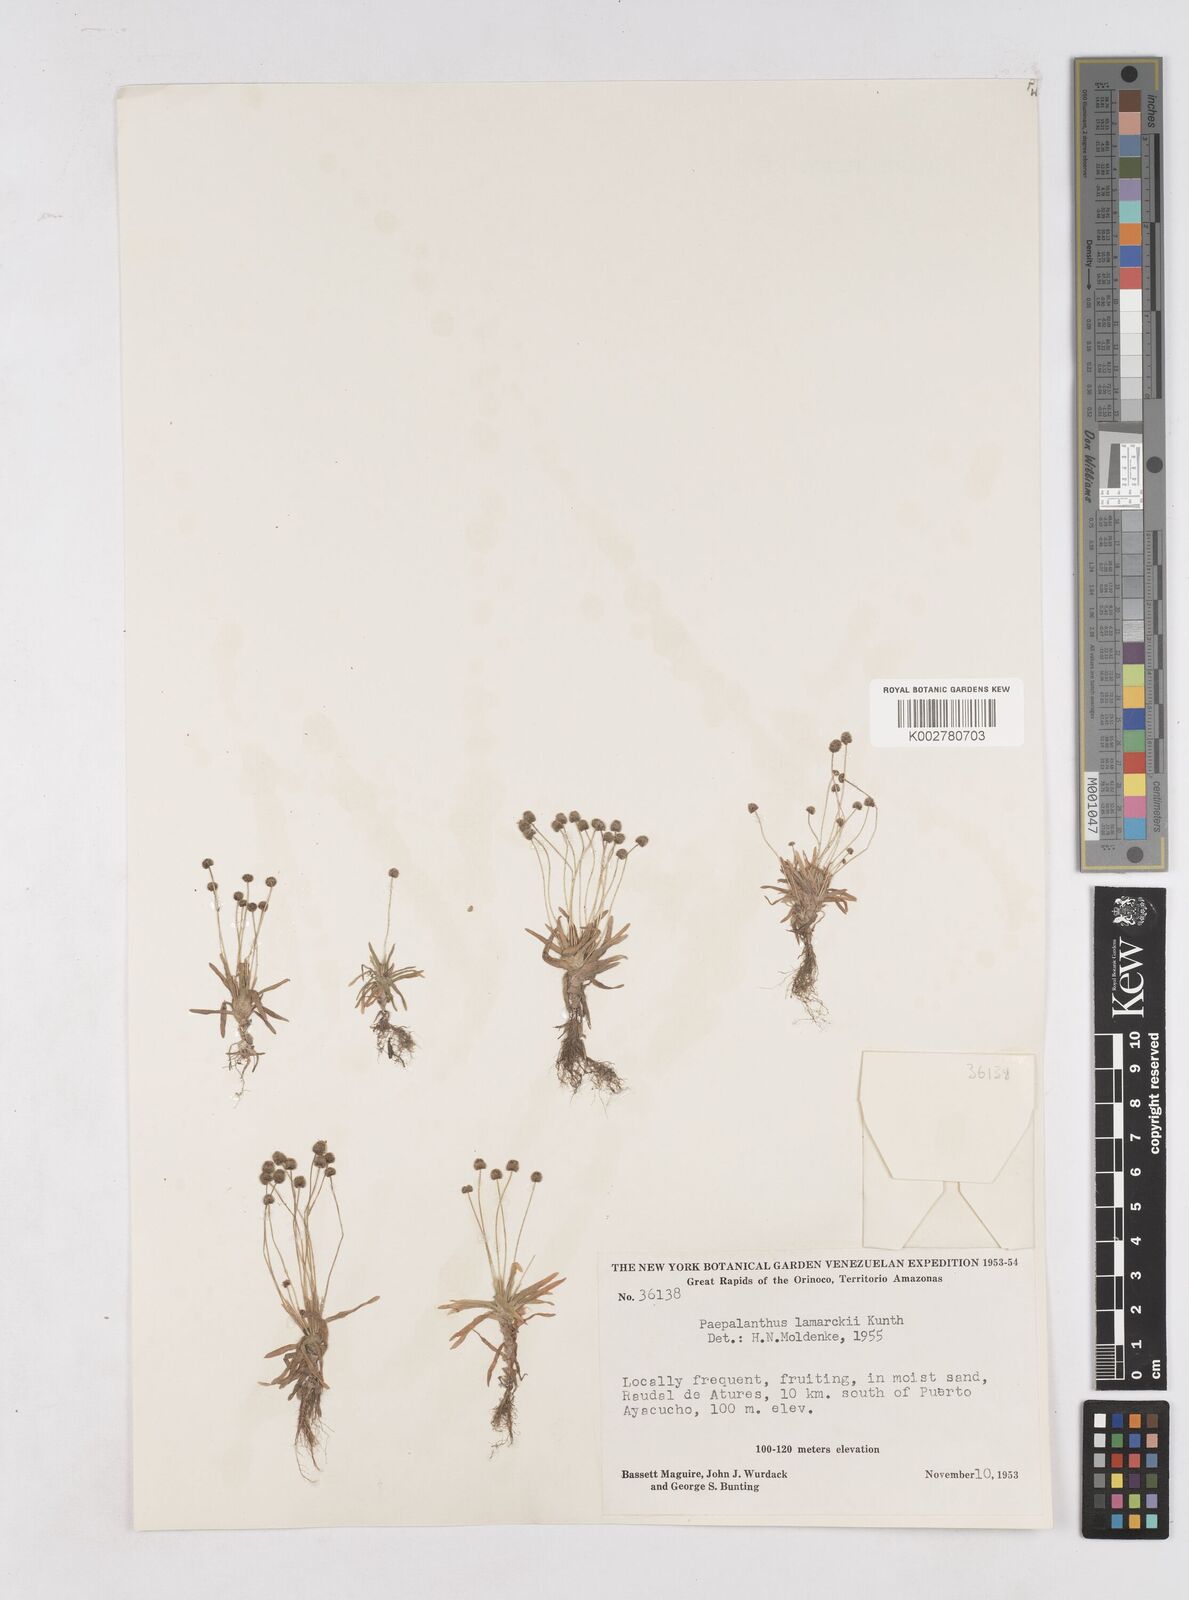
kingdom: Plantae
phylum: Tracheophyta
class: Liliopsida
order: Poales
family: Eriocaulaceae
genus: Paepalanthus
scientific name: Paepalanthus lamarckii
